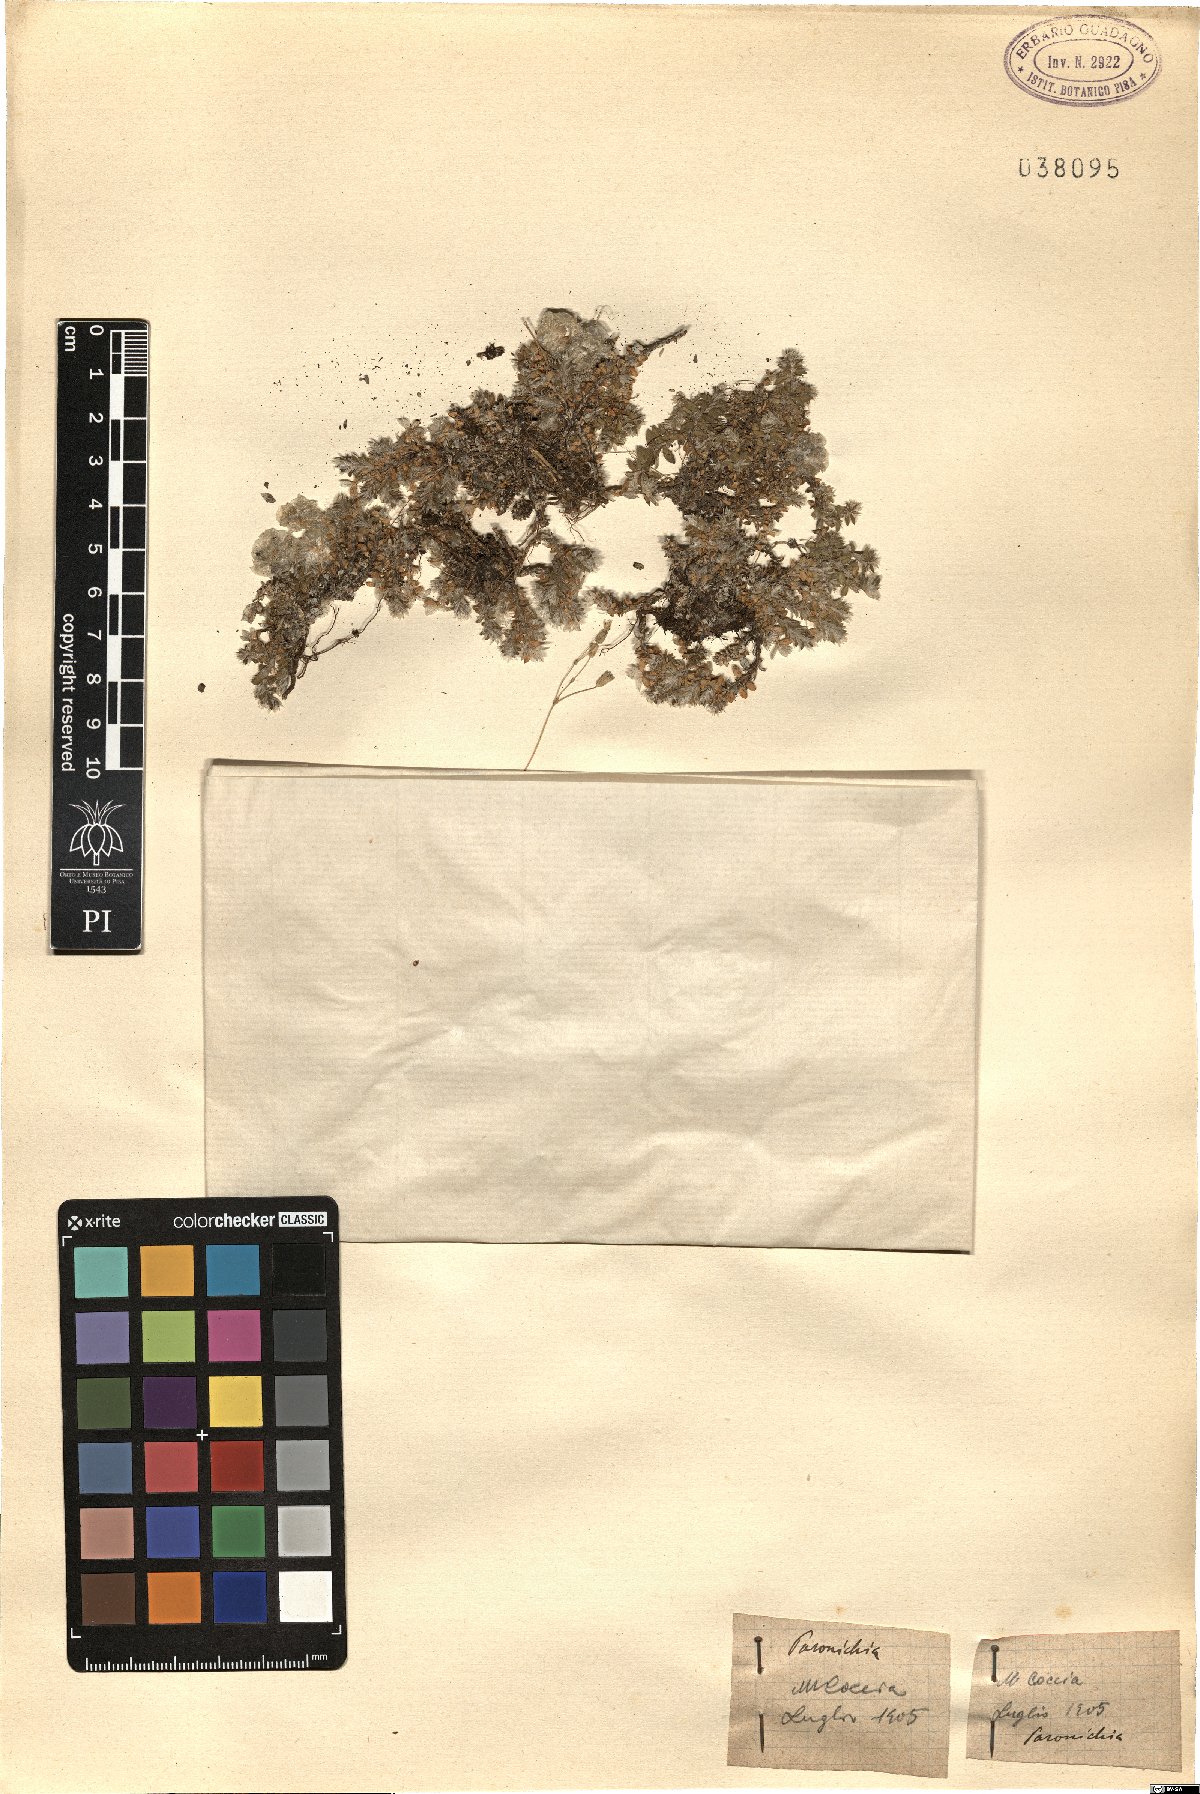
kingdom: Plantae
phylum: Tracheophyta
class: Magnoliopsida
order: Caryophyllales
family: Caryophyllaceae
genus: Paronychia
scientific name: Paronychia
